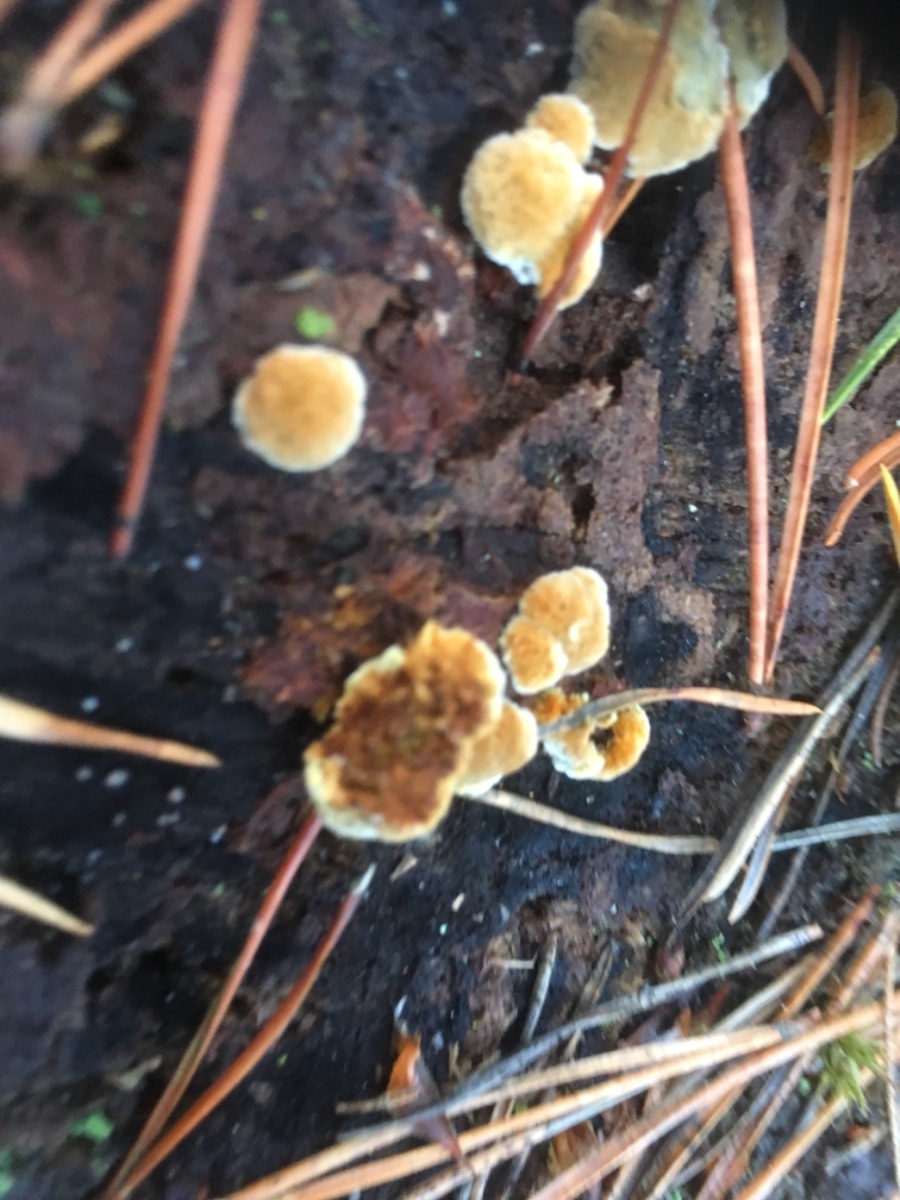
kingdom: Fungi
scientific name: Fungi
